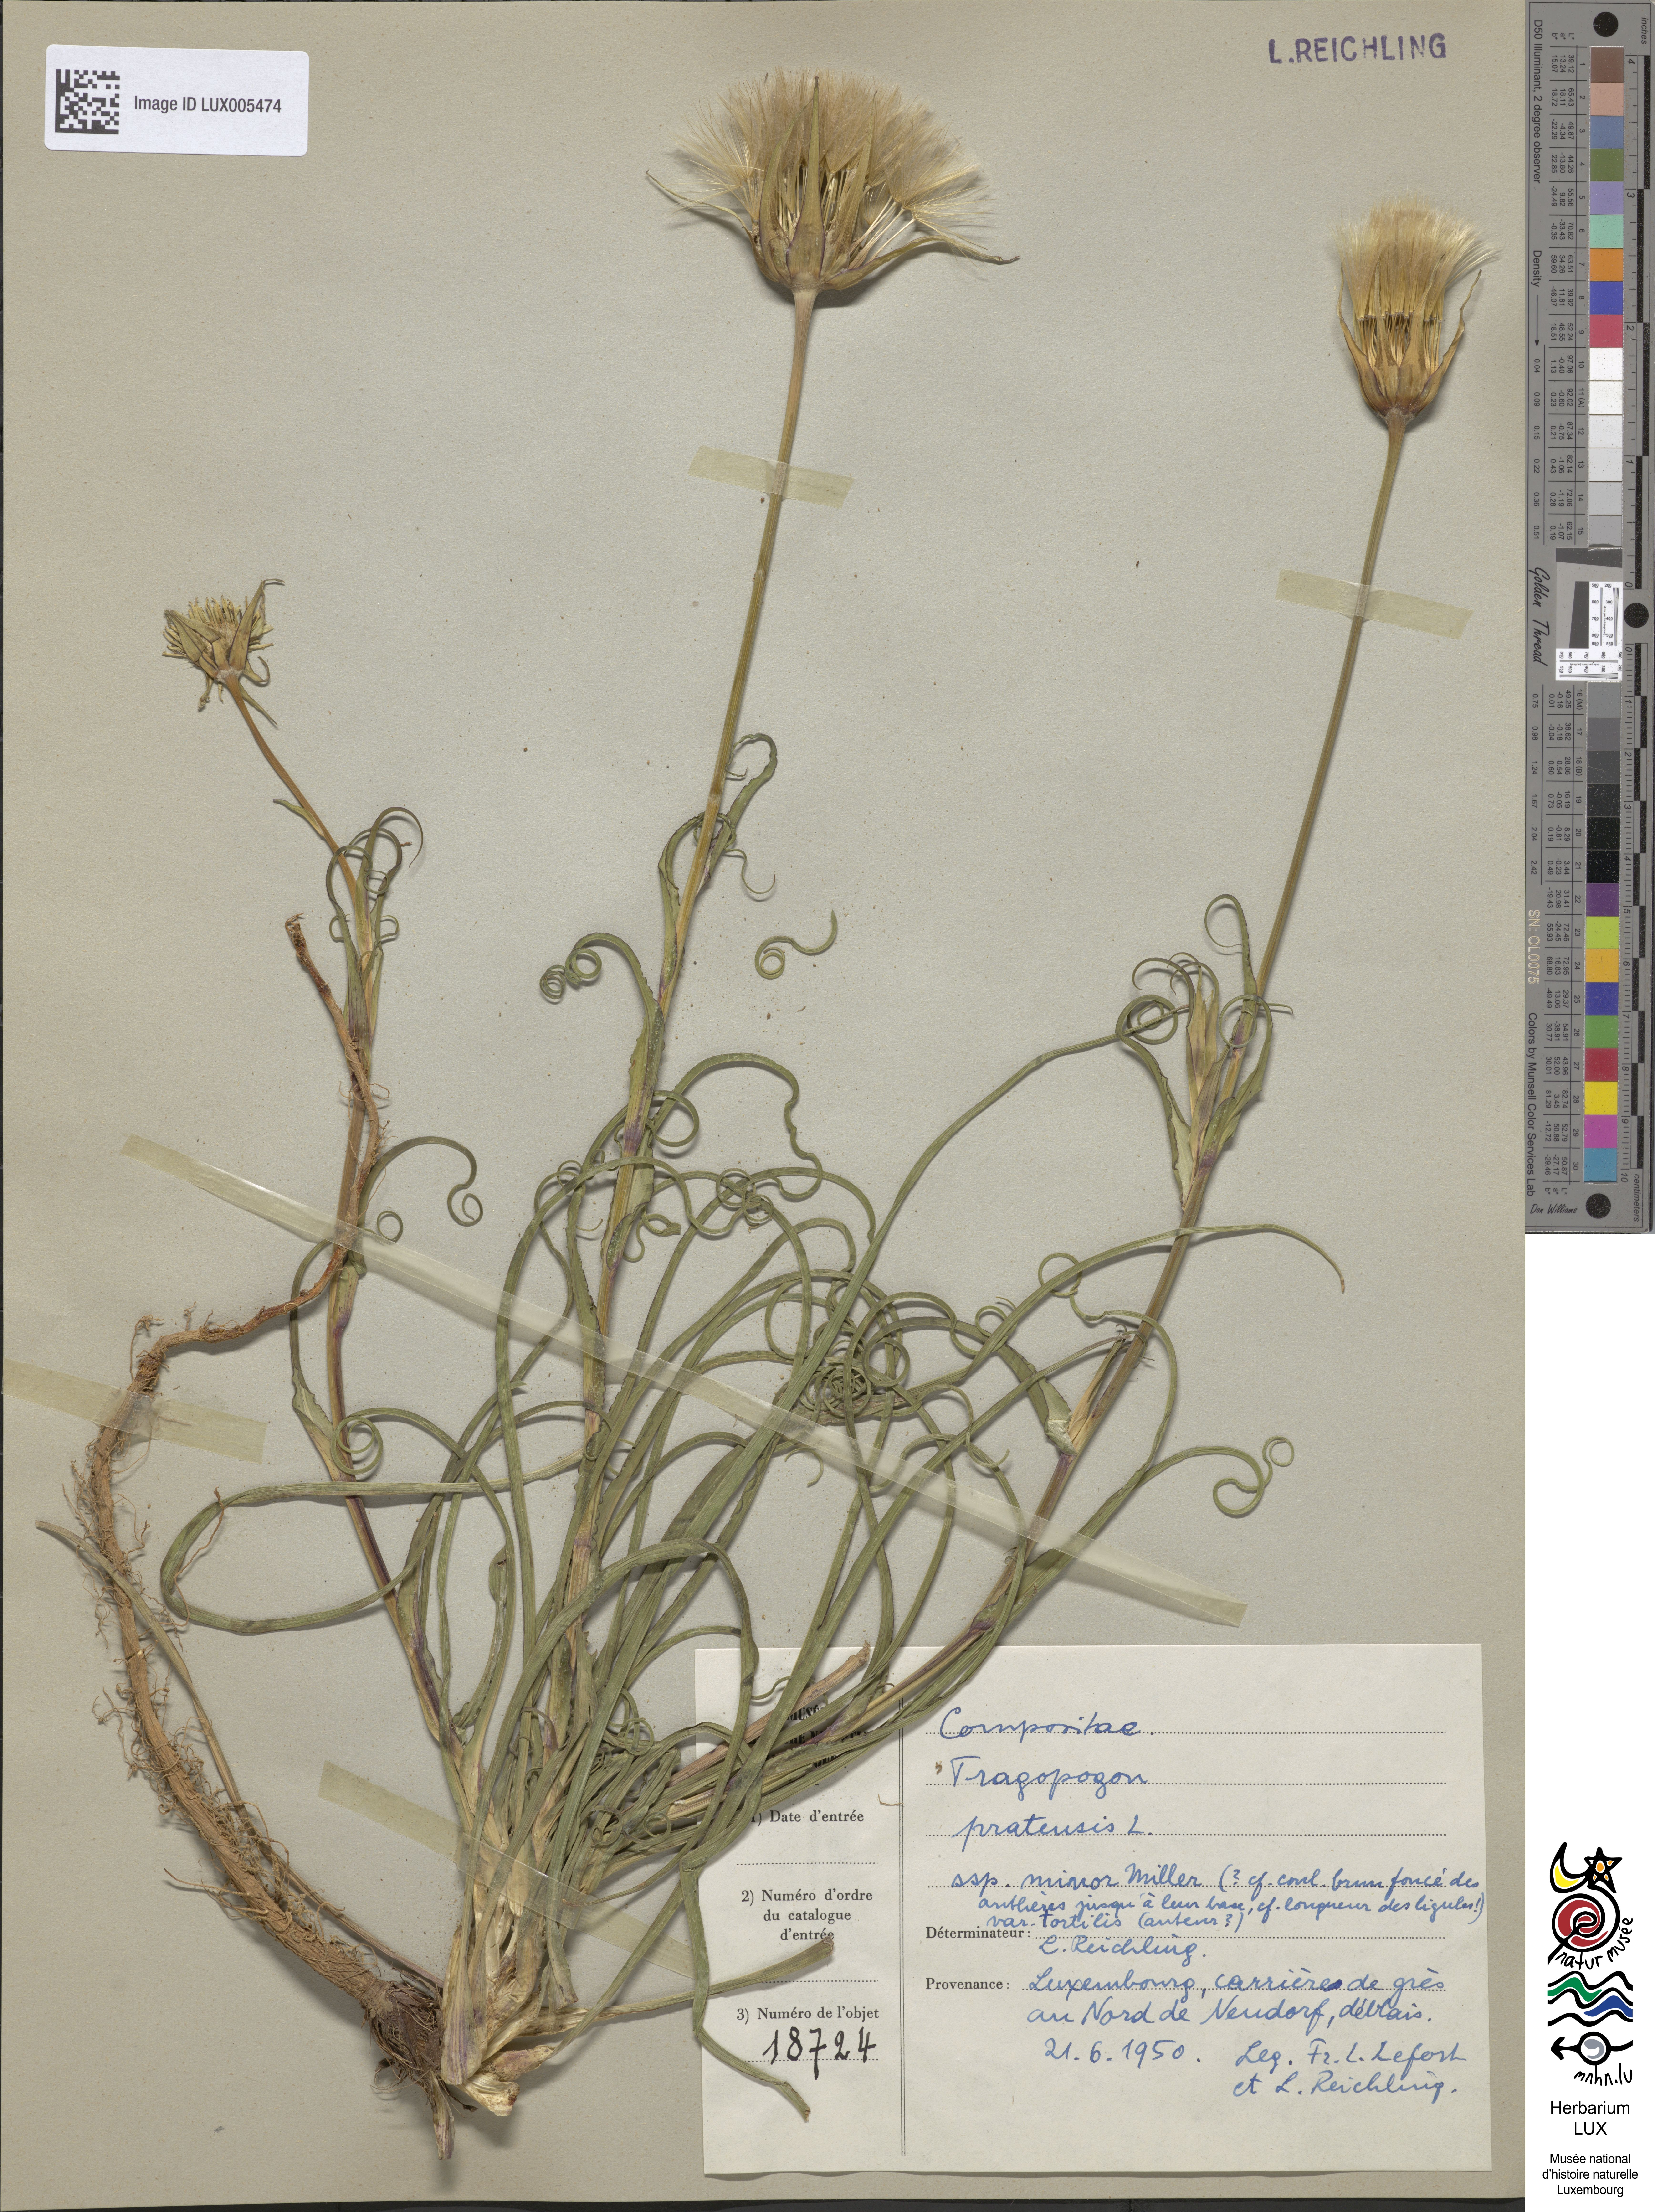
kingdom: Plantae
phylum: Tracheophyta
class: Magnoliopsida
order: Asterales
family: Asteraceae
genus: Tragopogon
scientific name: Tragopogon minor
